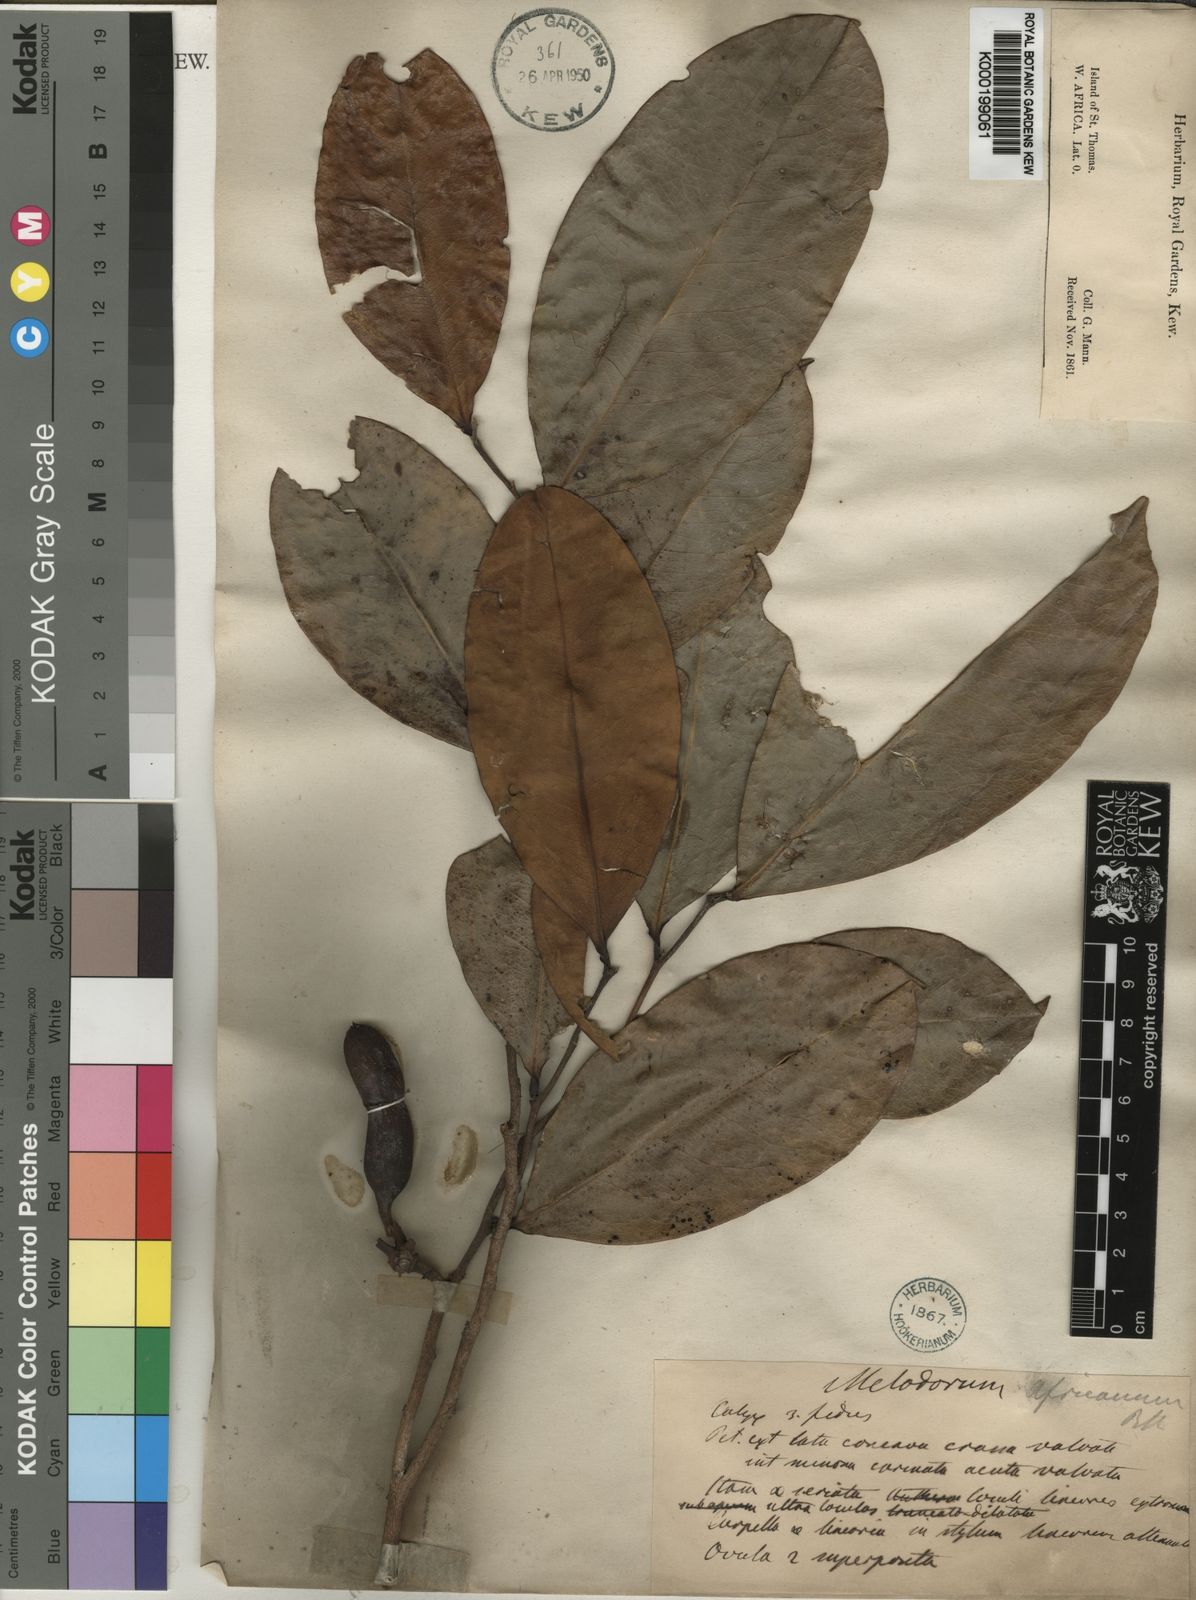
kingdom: Plantae
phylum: Tracheophyta
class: Magnoliopsida
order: Magnoliales
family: Annonaceae
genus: Xylopia
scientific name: Xylopia africana
